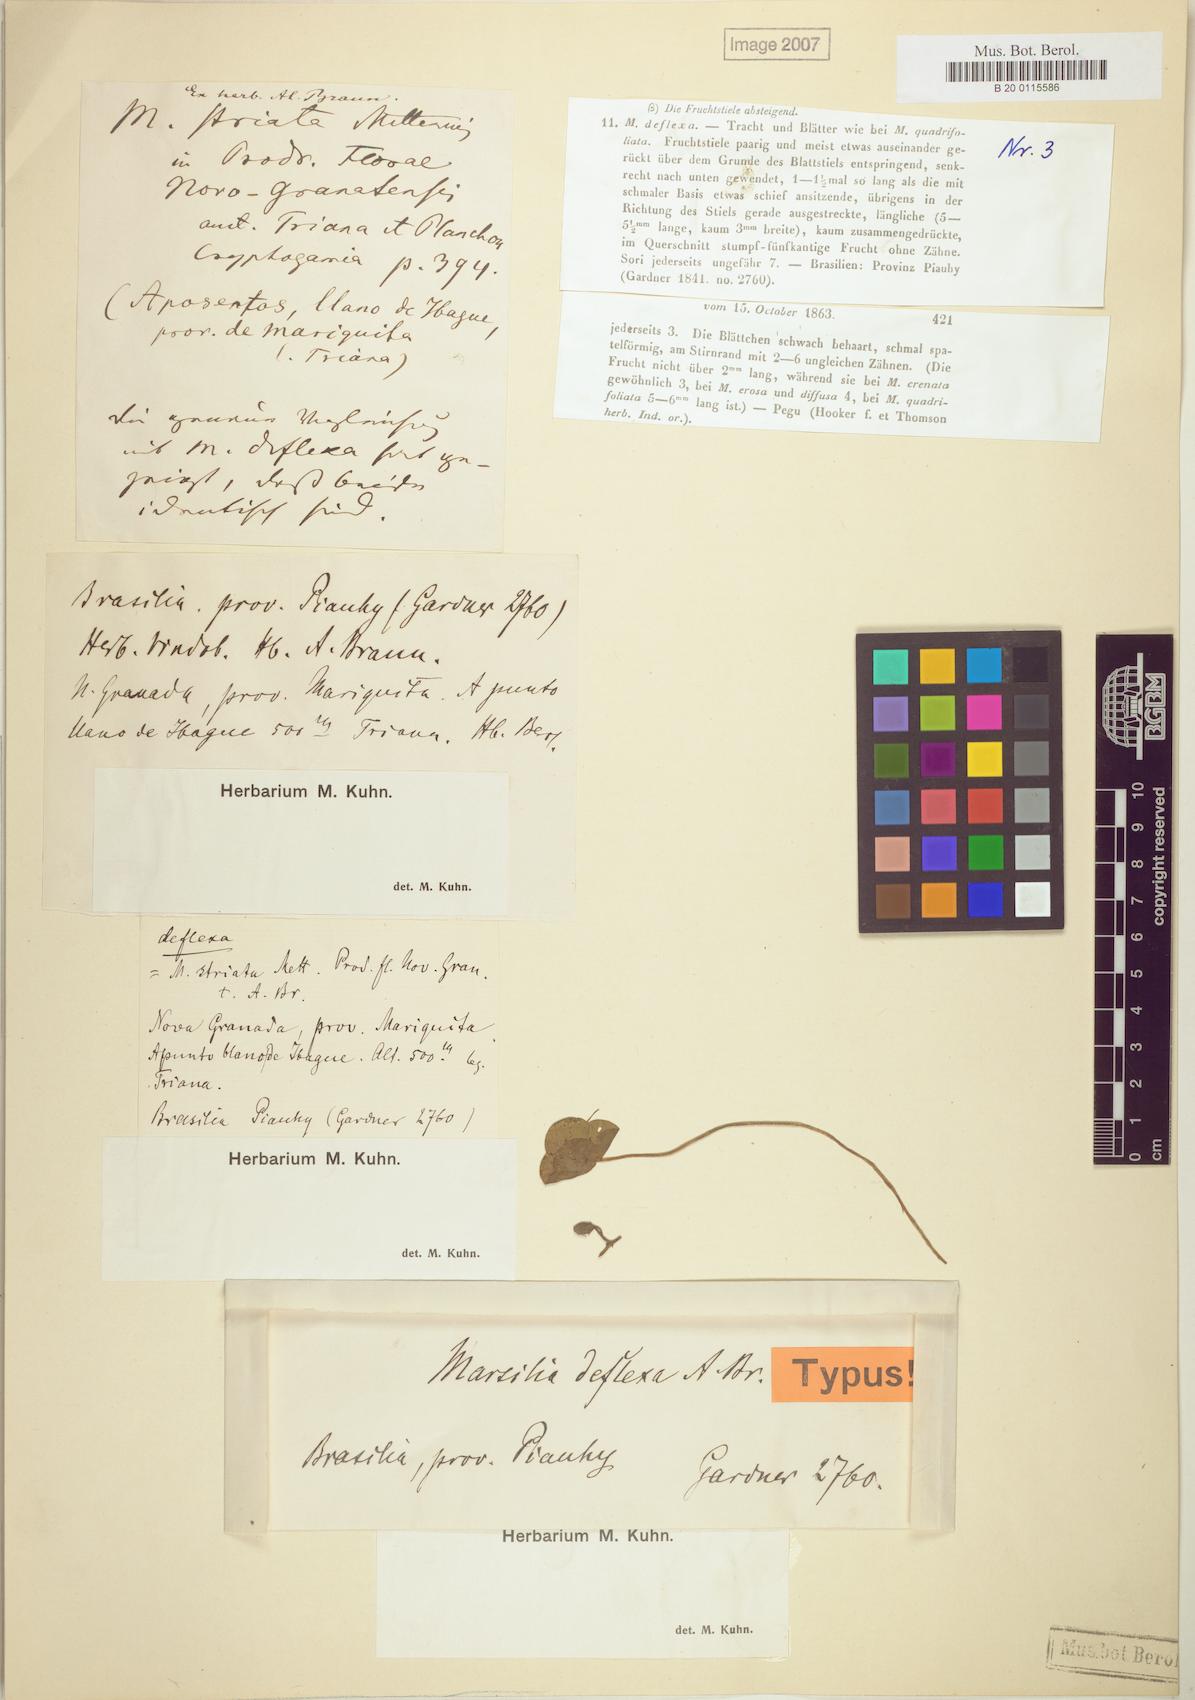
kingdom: Plantae
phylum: Tracheophyta
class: Polypodiopsida
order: Salviniales
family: Marsileaceae
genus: Marsilea
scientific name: Marsilea deflexa
